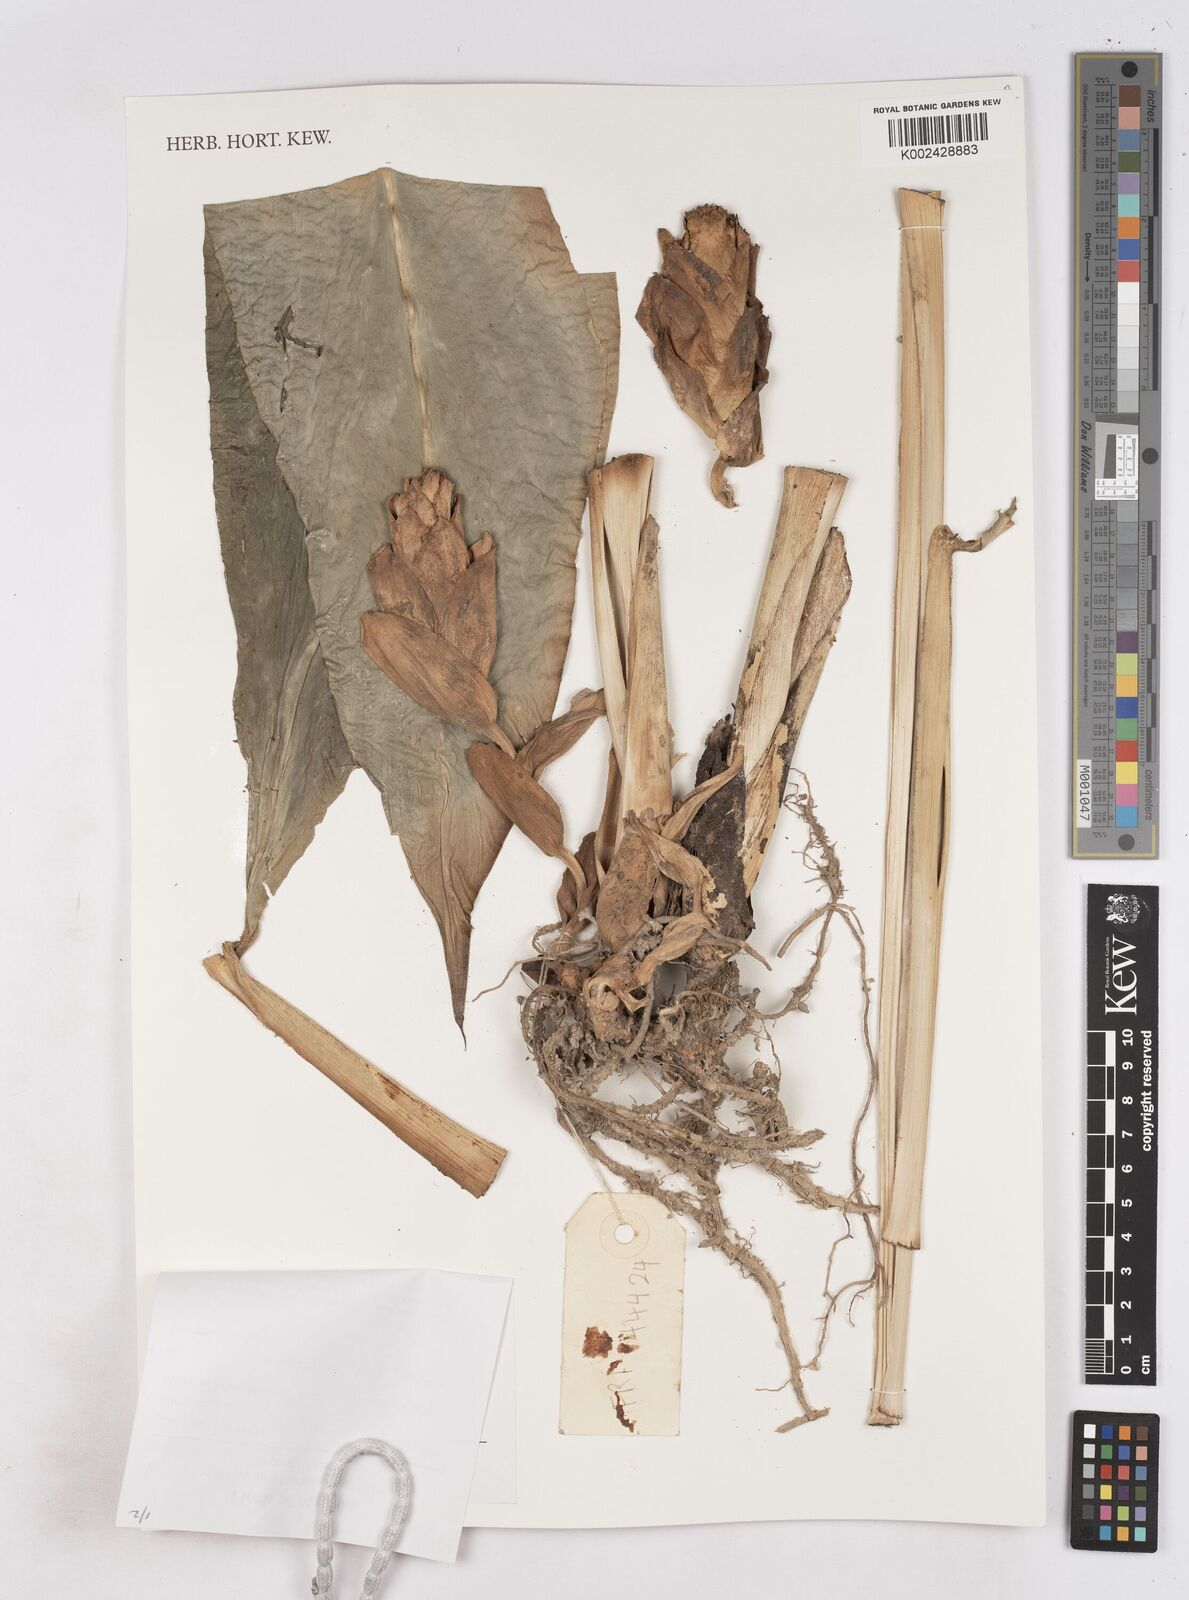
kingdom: Plantae
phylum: Tracheophyta
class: Liliopsida
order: Zingiberales
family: Zingiberaceae
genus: Zingiber
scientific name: Zingiber
